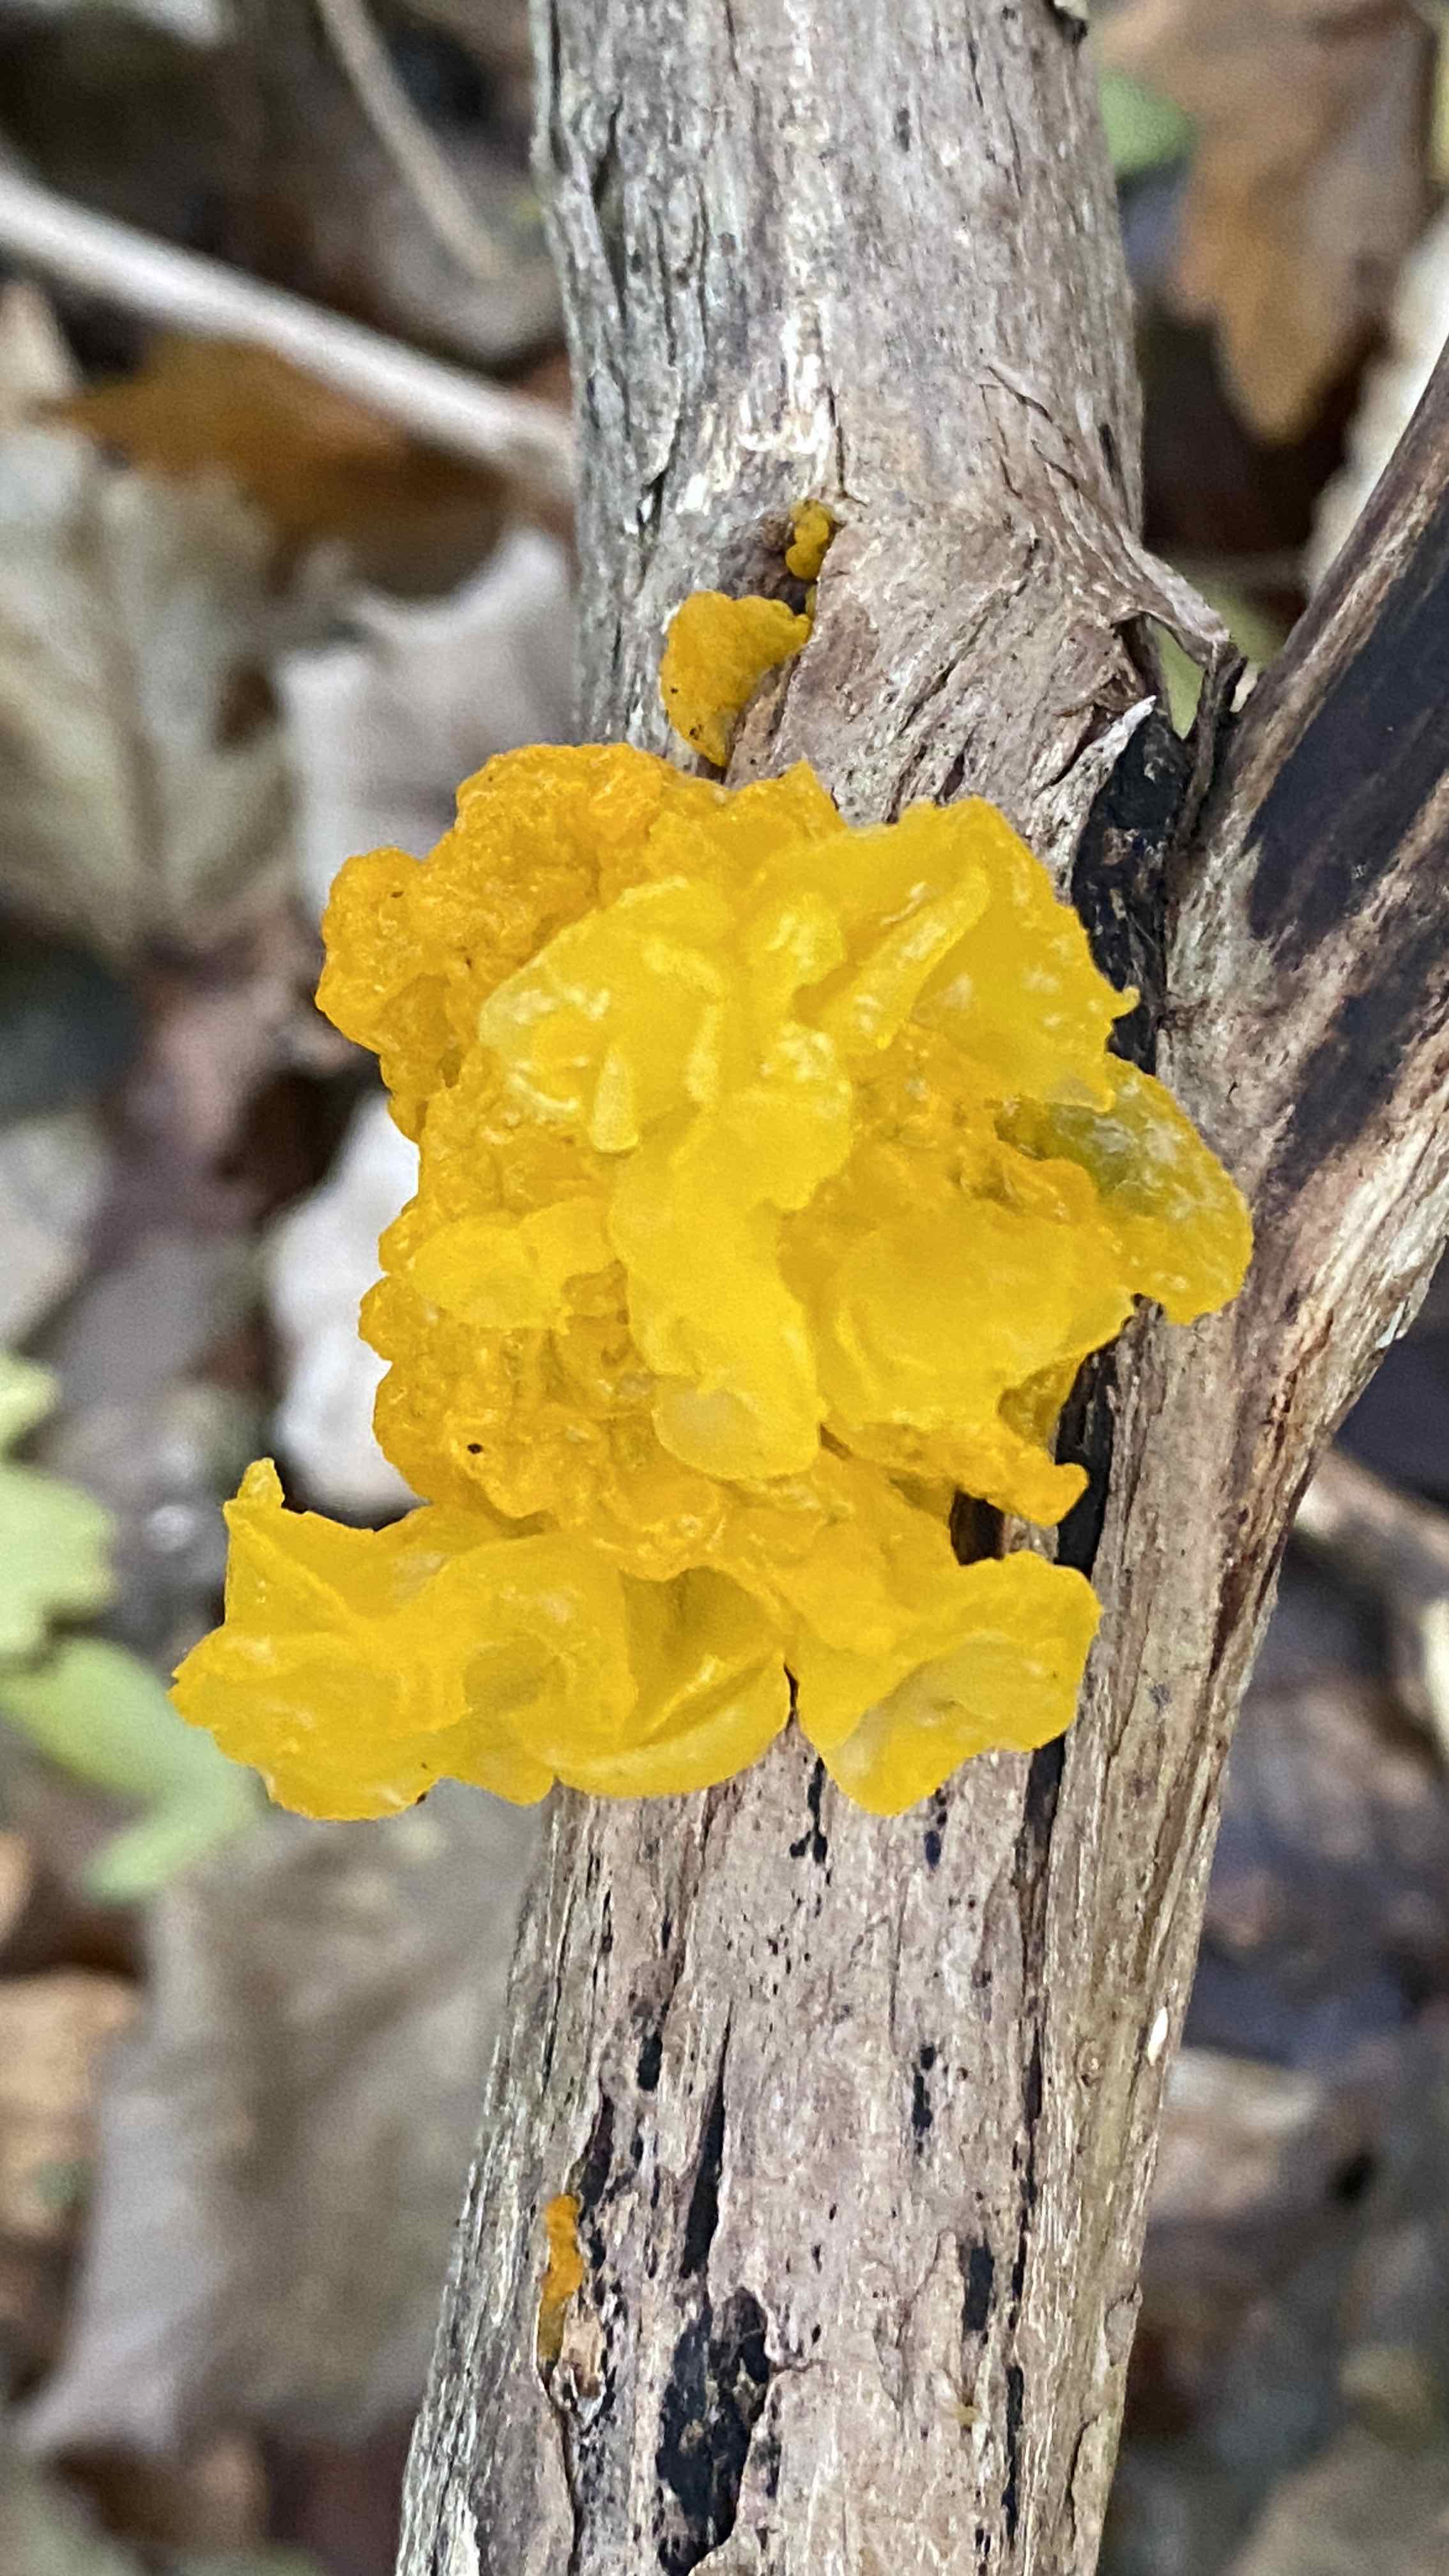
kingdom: Fungi
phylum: Basidiomycota
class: Tremellomycetes
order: Tremellales
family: Tremellaceae
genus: Tremella
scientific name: Tremella mesenterica
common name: gul bævresvamp
